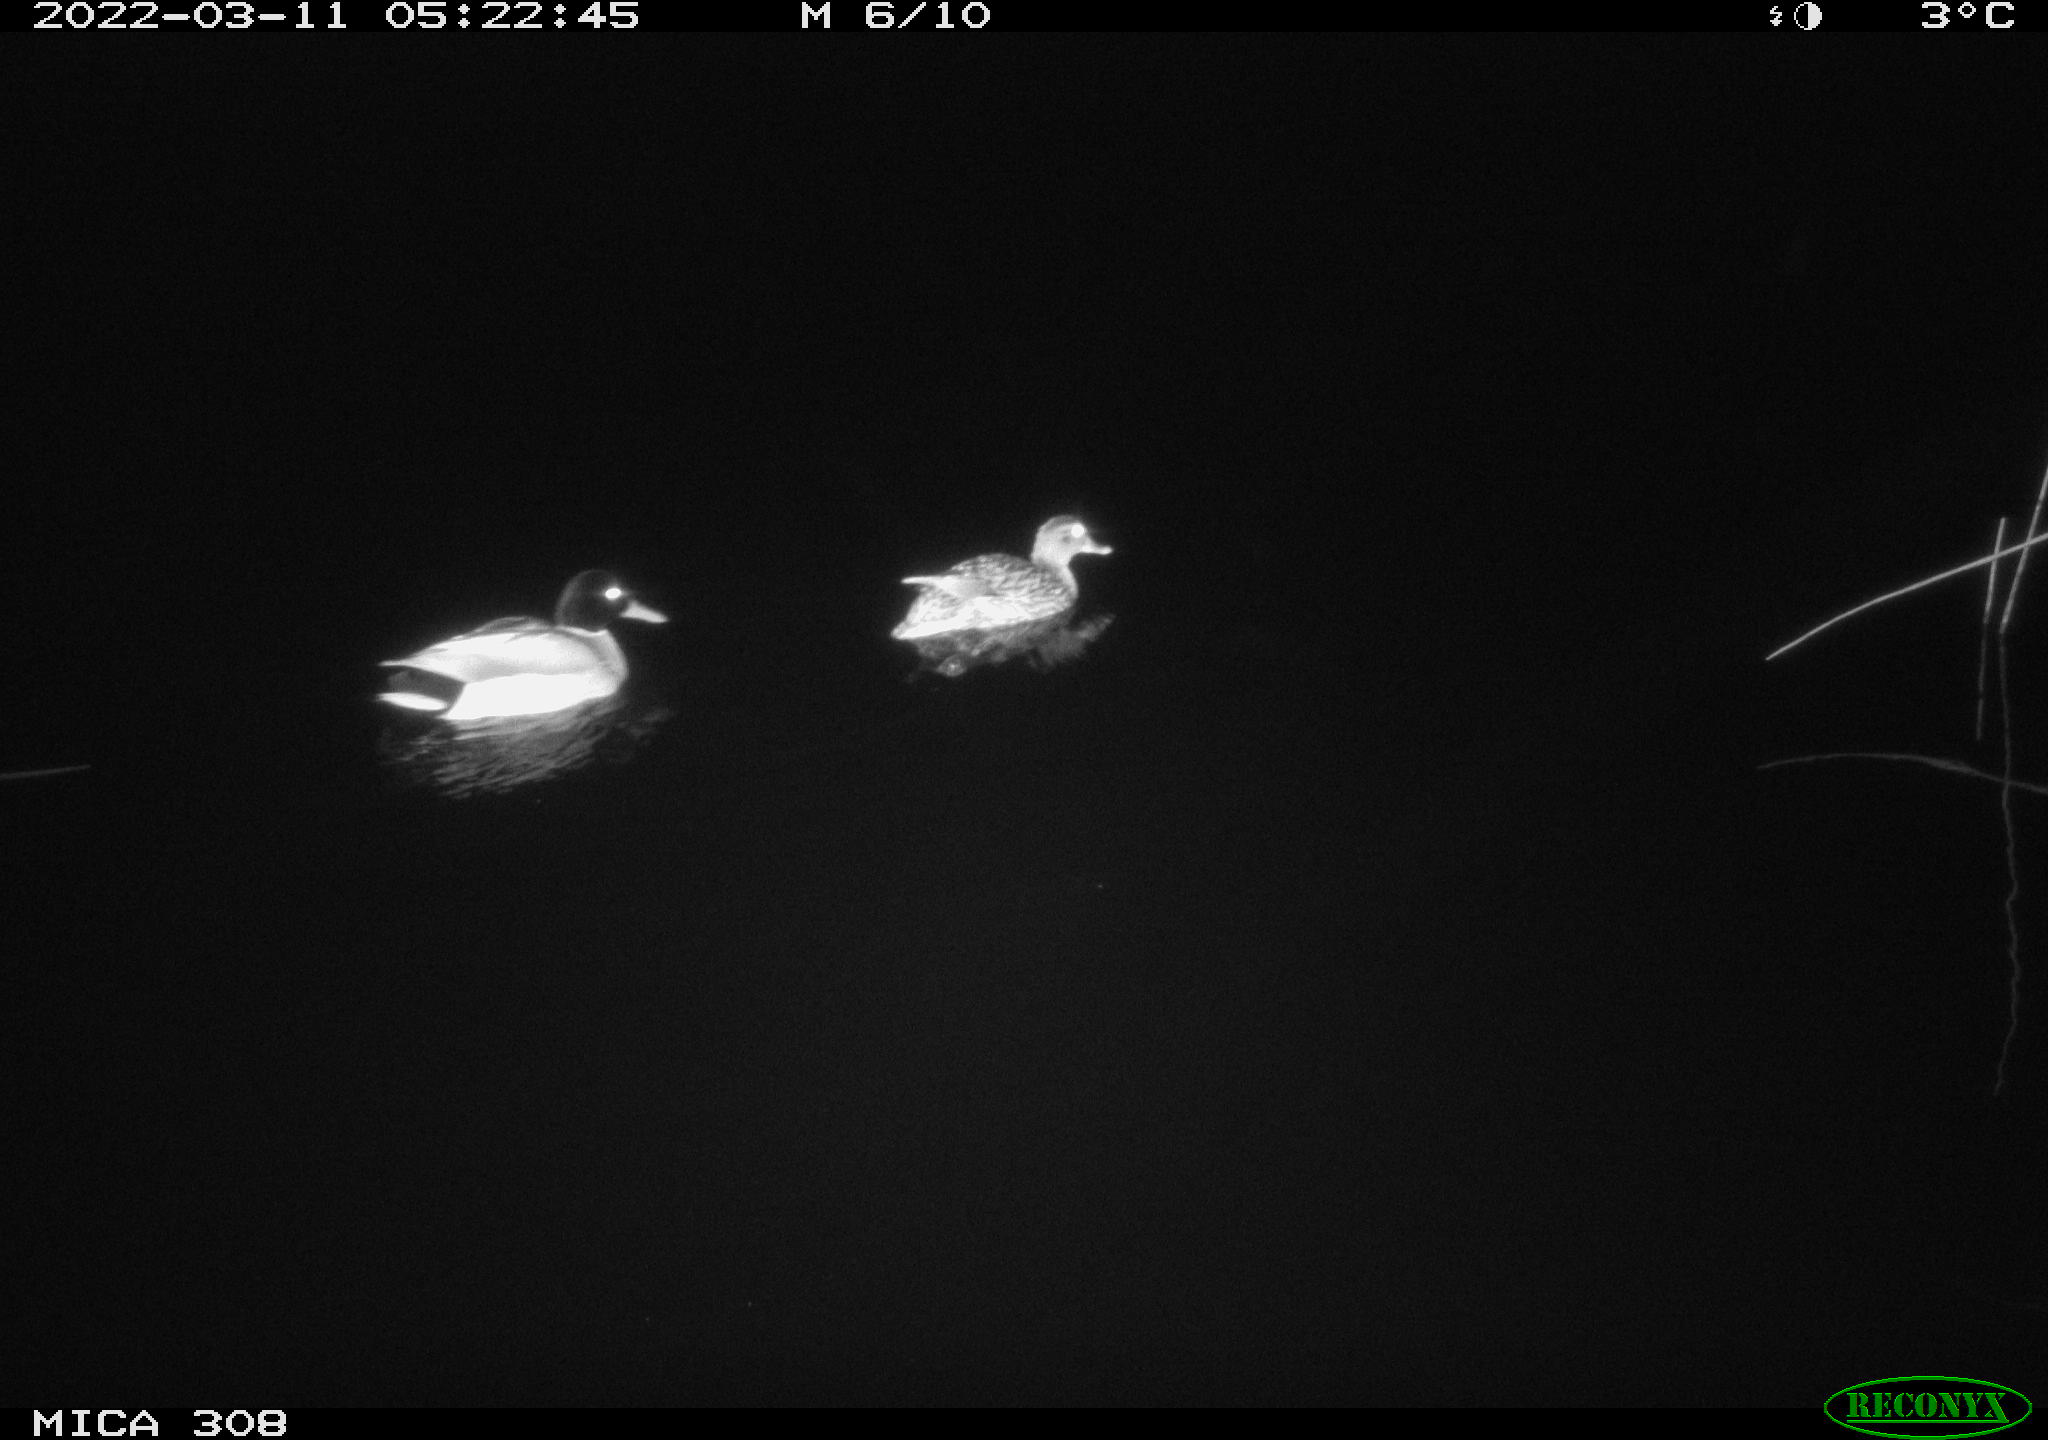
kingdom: Animalia
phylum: Chordata
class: Aves
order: Anseriformes
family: Anatidae
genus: Anas
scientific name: Anas platyrhynchos
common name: Mallard
